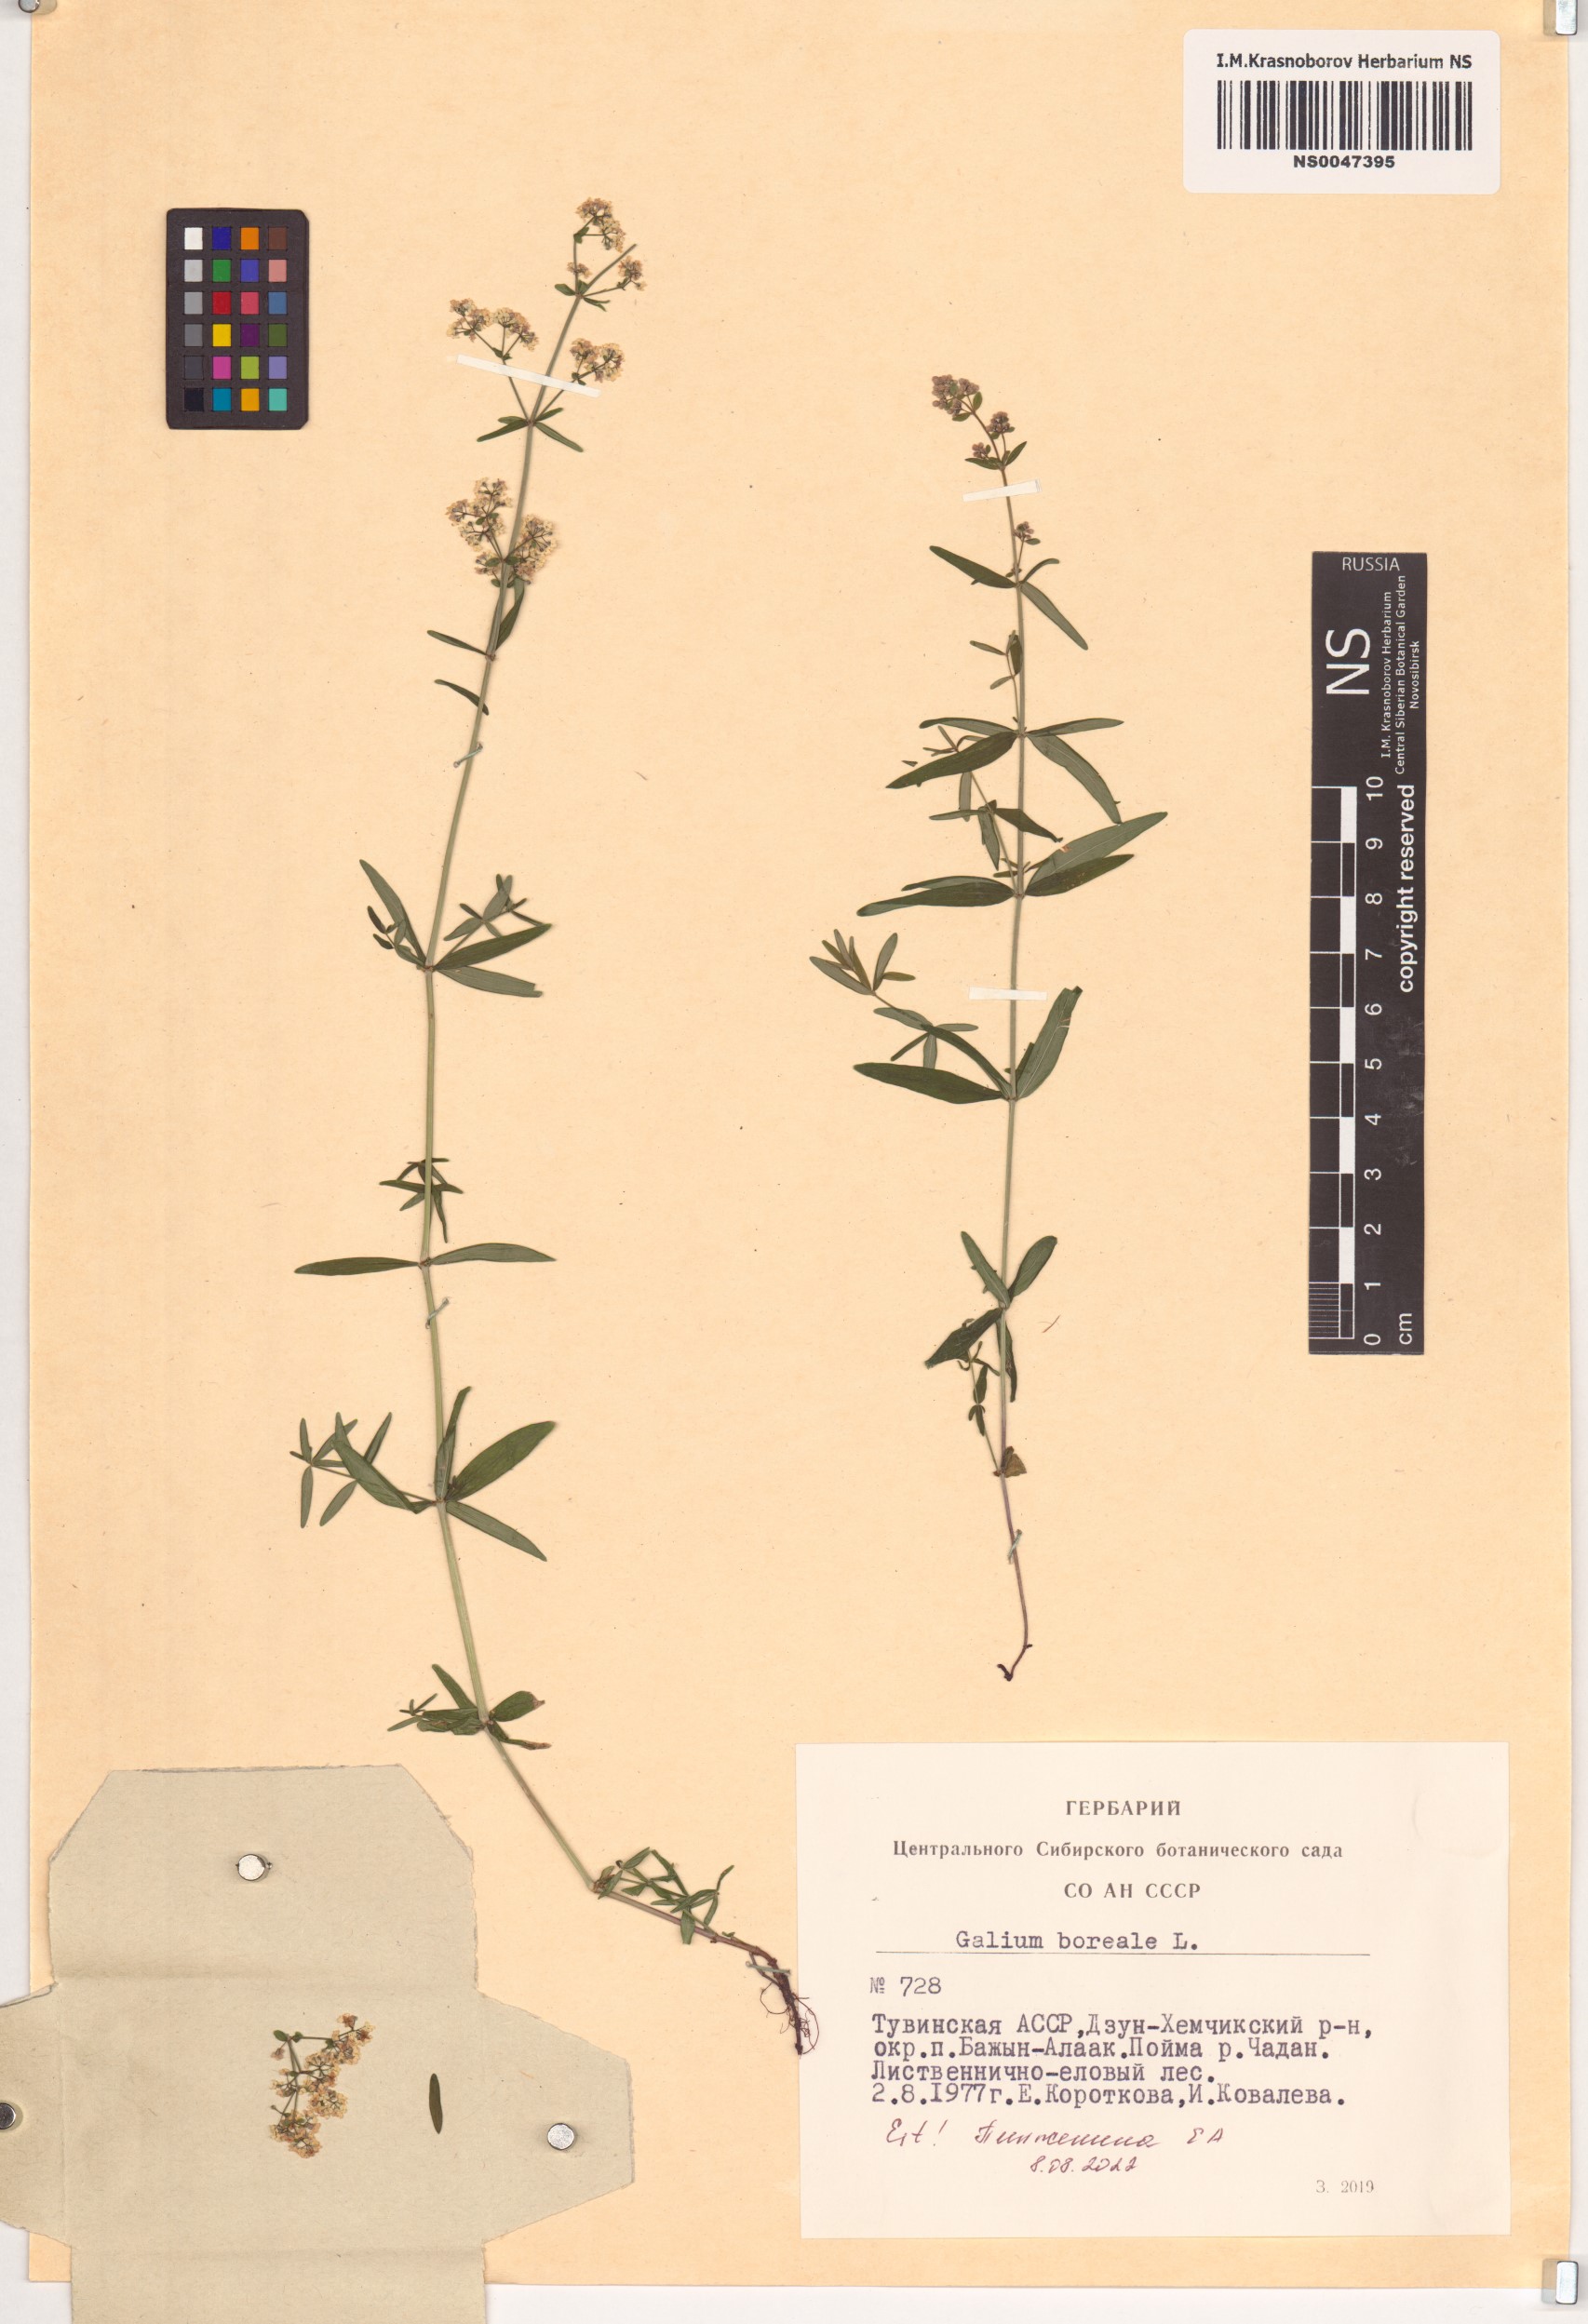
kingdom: Plantae
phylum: Tracheophyta
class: Magnoliopsida
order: Gentianales
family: Rubiaceae
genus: Galium
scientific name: Galium boreale
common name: Northern bedstraw
